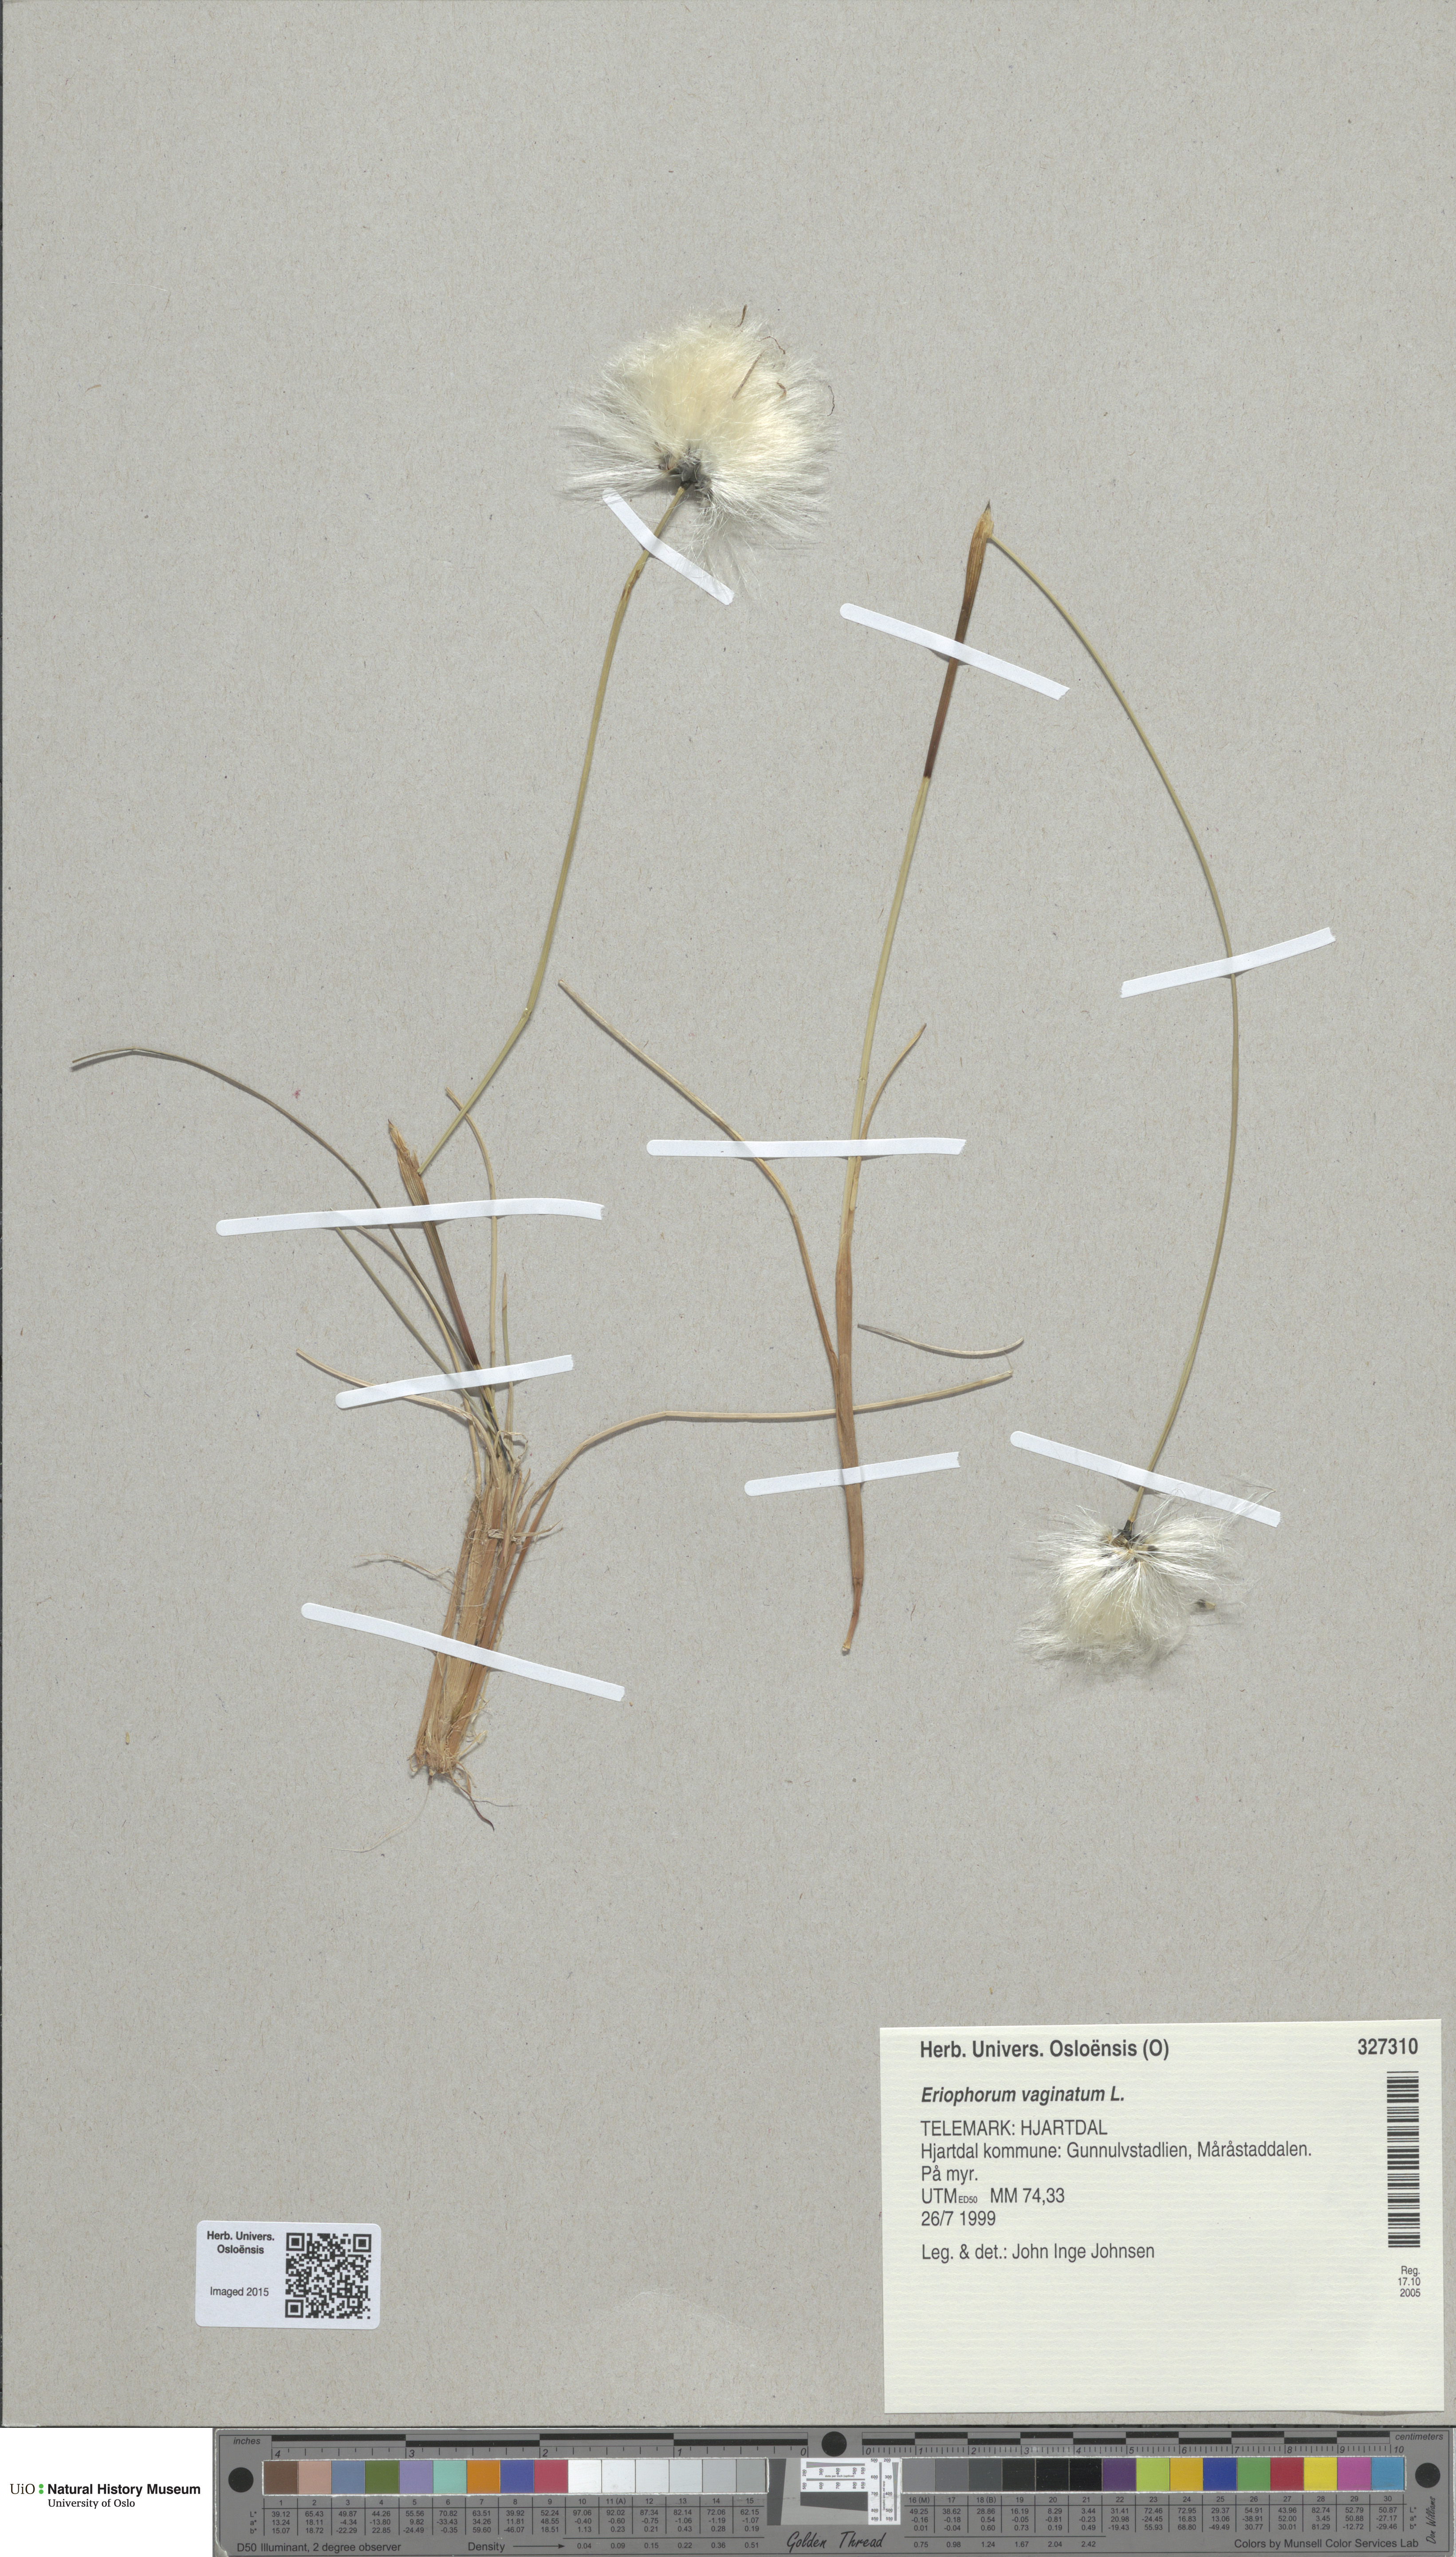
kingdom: Plantae
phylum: Tracheophyta
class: Liliopsida
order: Poales
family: Cyperaceae
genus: Eriophorum
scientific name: Eriophorum vaginatum
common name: Hare's-tail cottongrass
